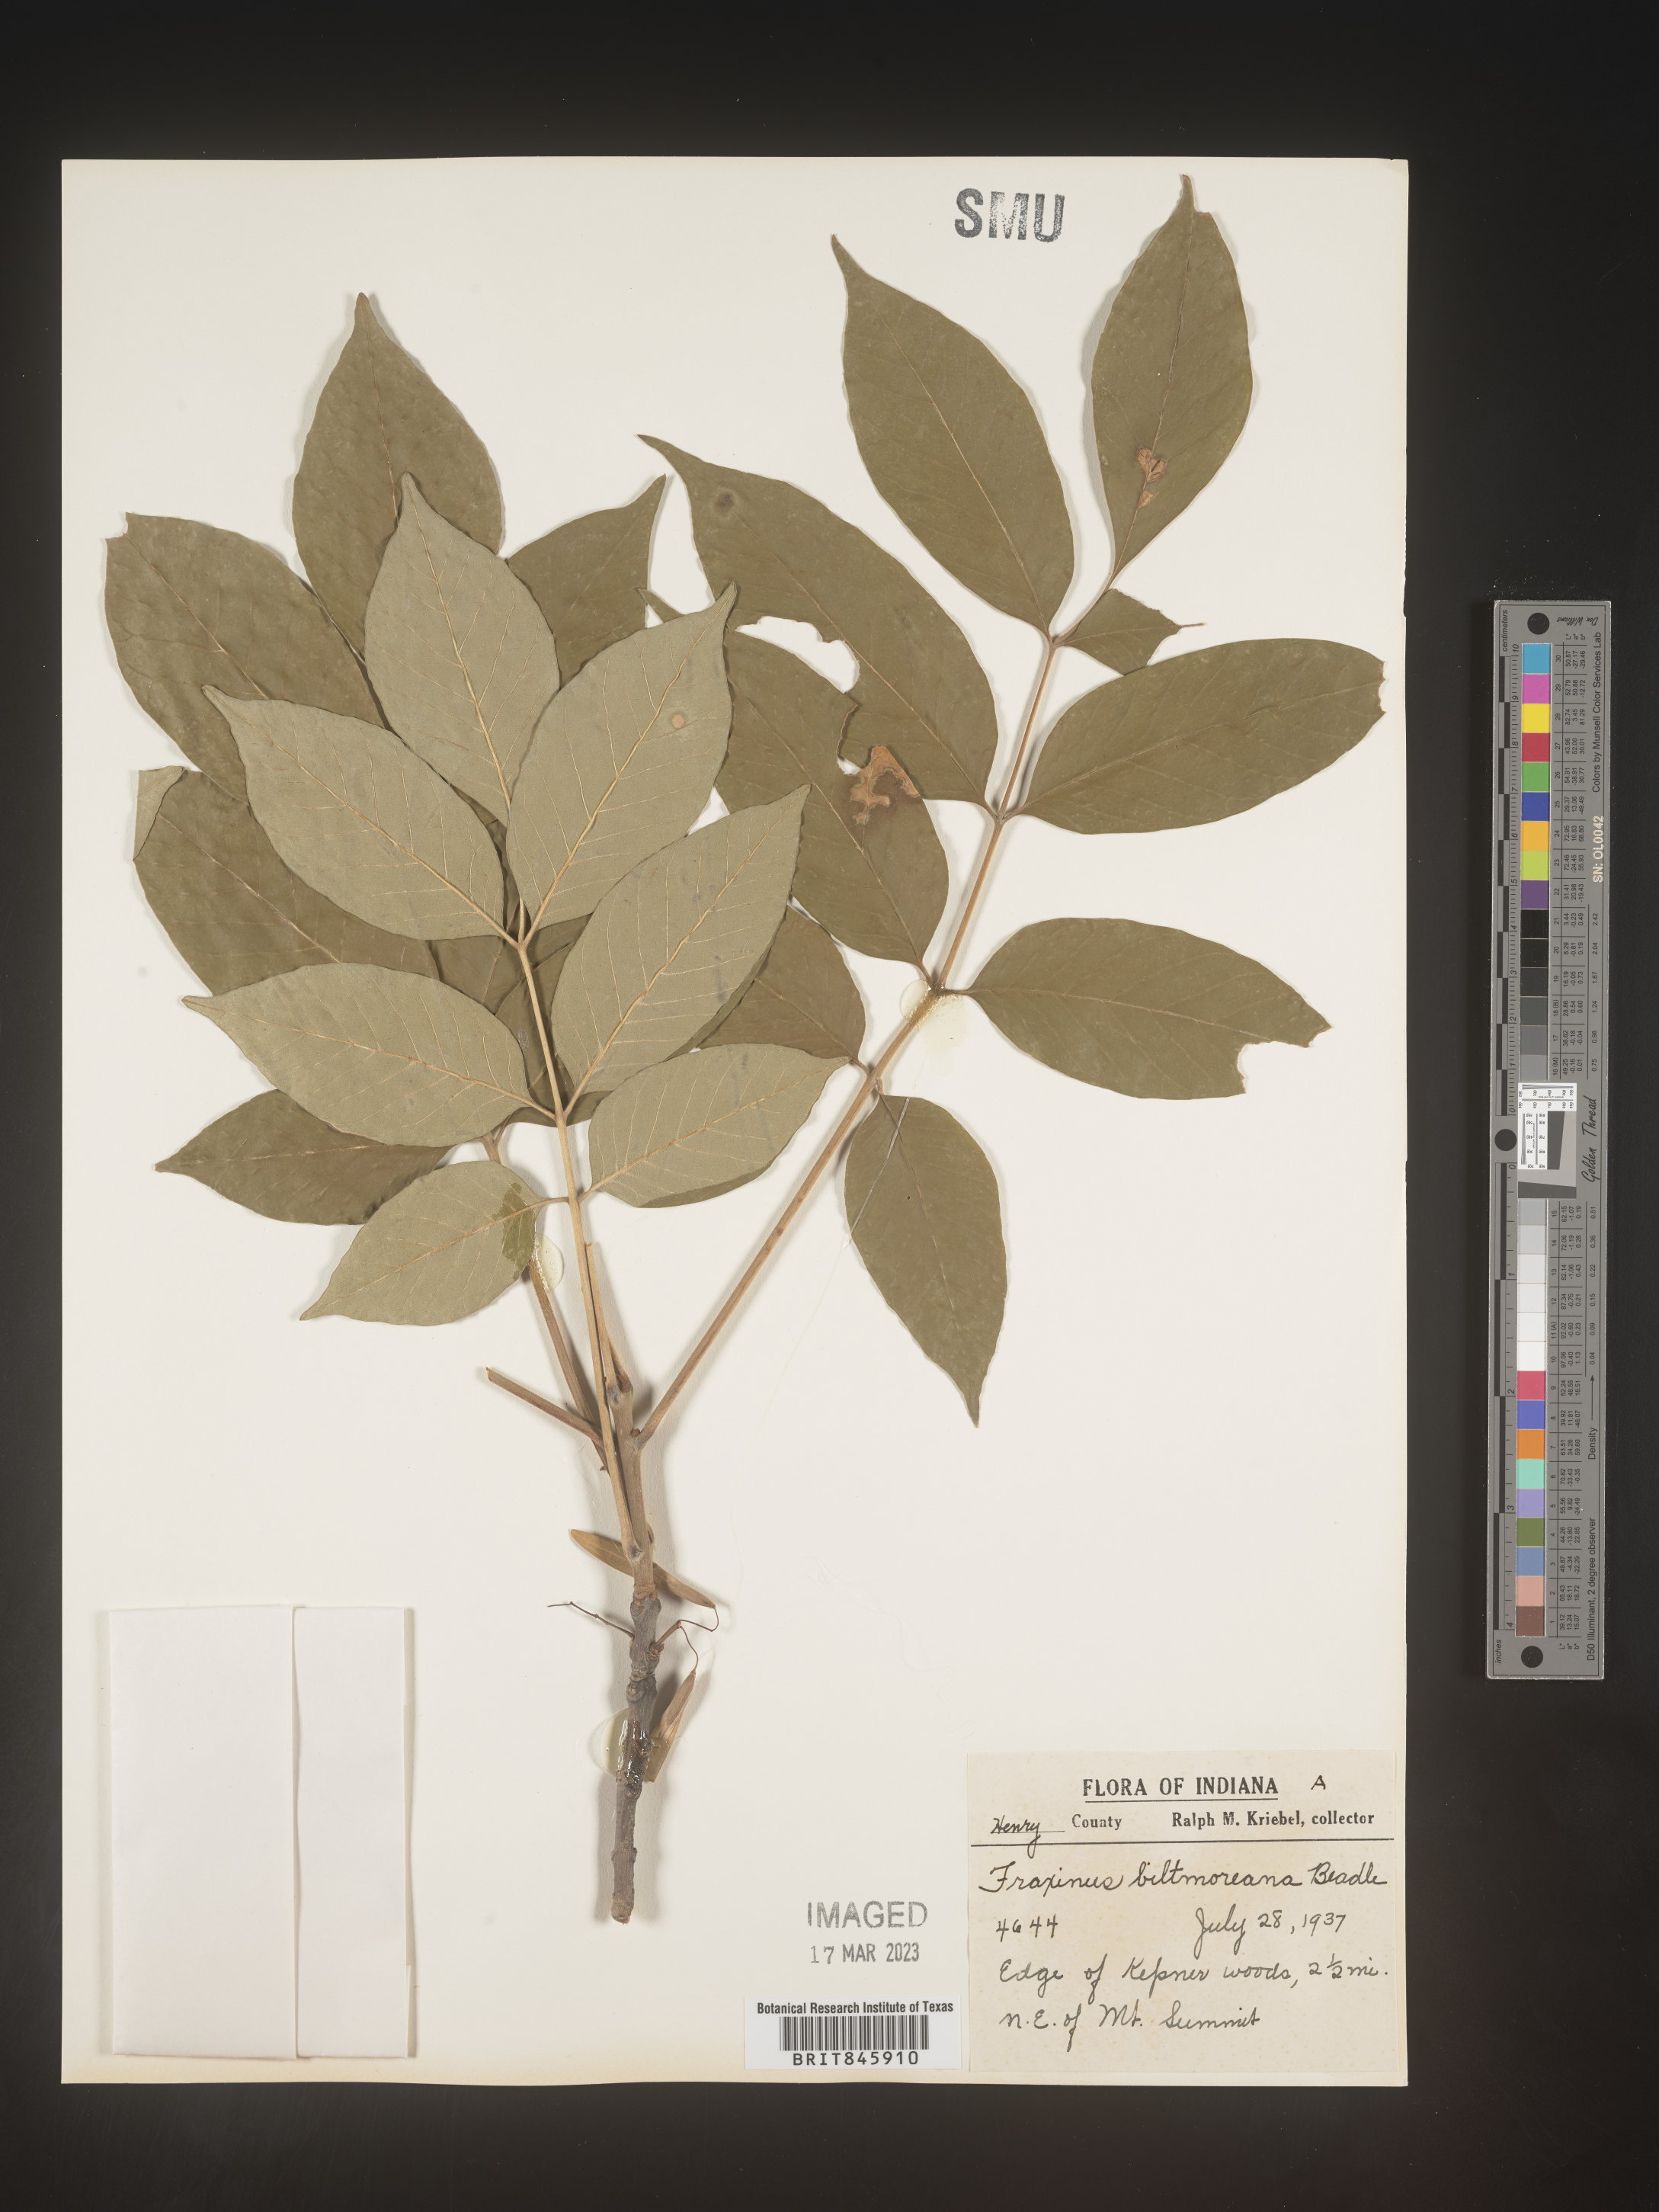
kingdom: Plantae
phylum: Tracheophyta
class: Magnoliopsida
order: Lamiales
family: Oleaceae
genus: Fraxinus
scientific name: Fraxinus americana
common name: White ash
